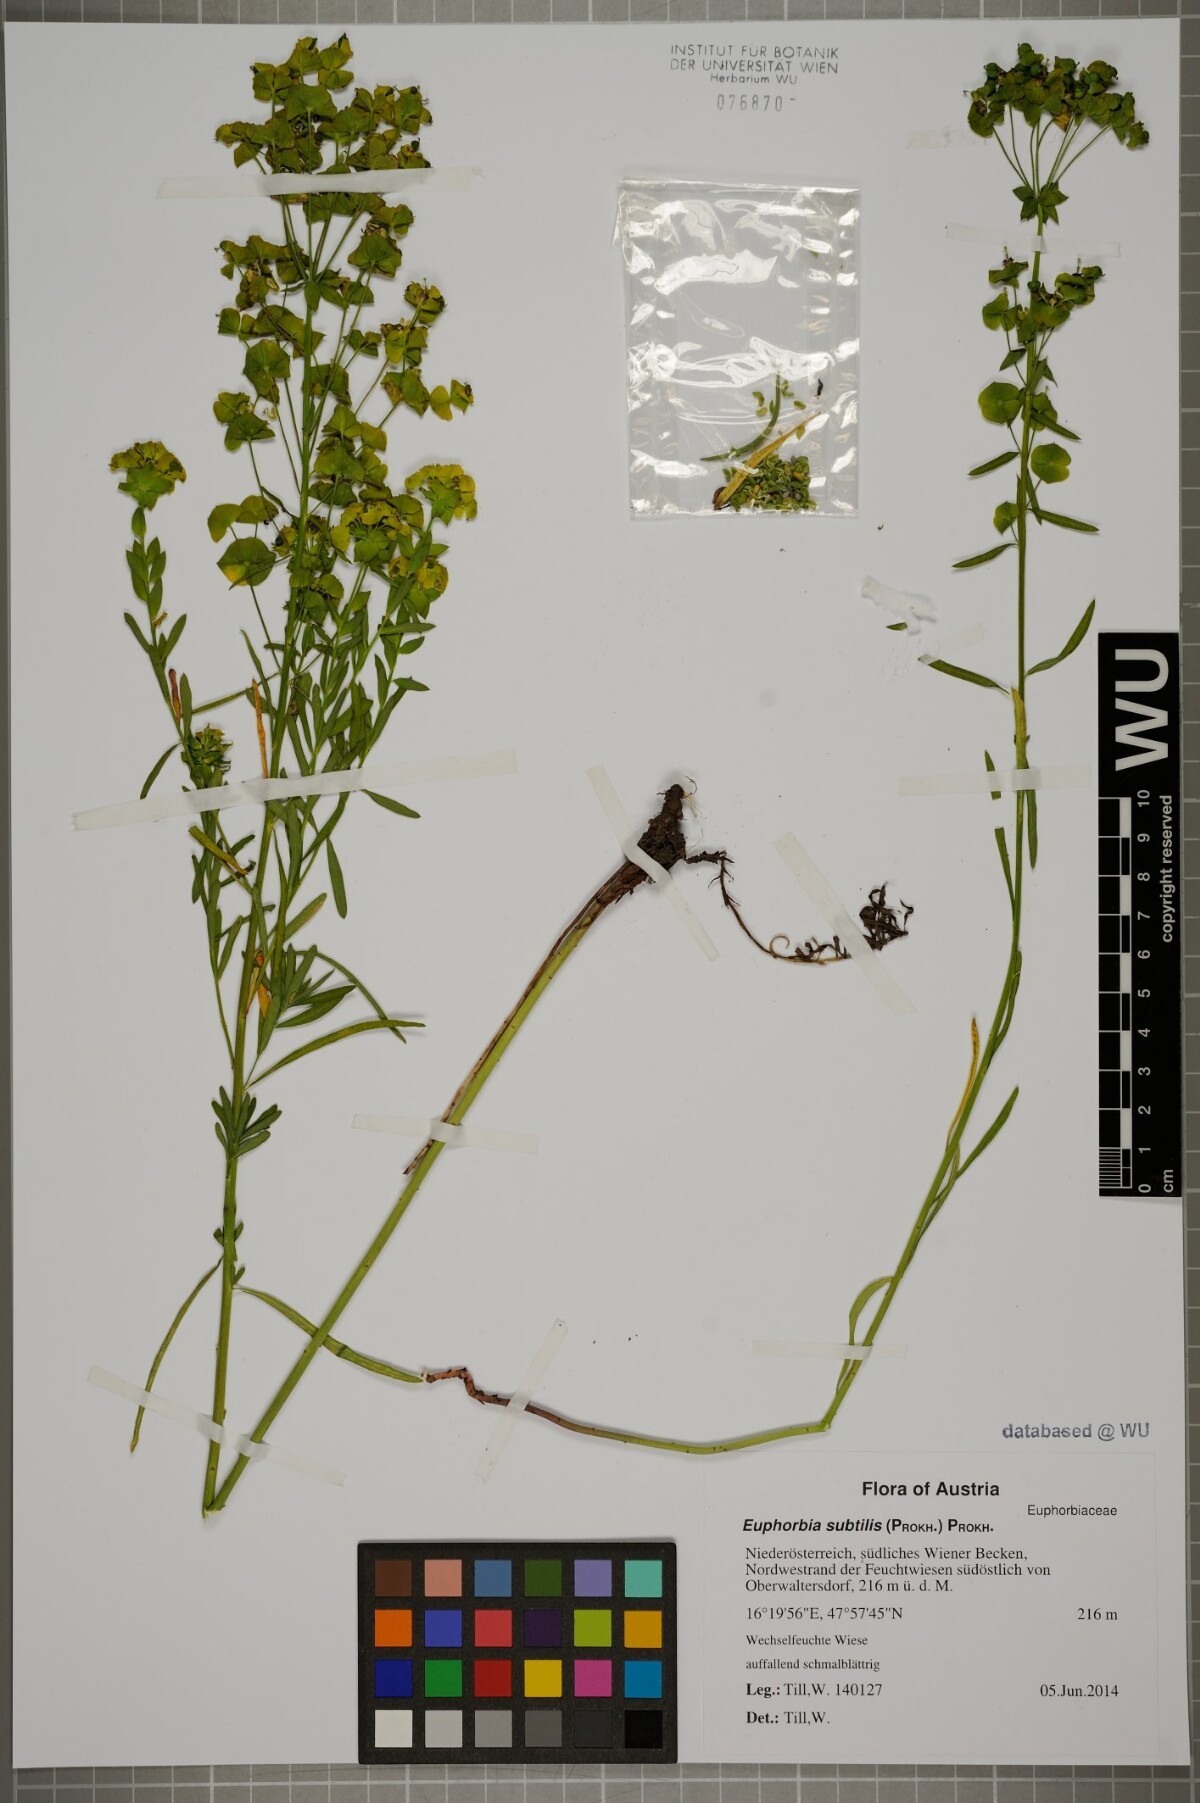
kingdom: Plantae
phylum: Tracheophyta
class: Magnoliopsida
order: Malpighiales
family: Euphorbiaceae
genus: Euphorbia
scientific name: Euphorbia saratoi
